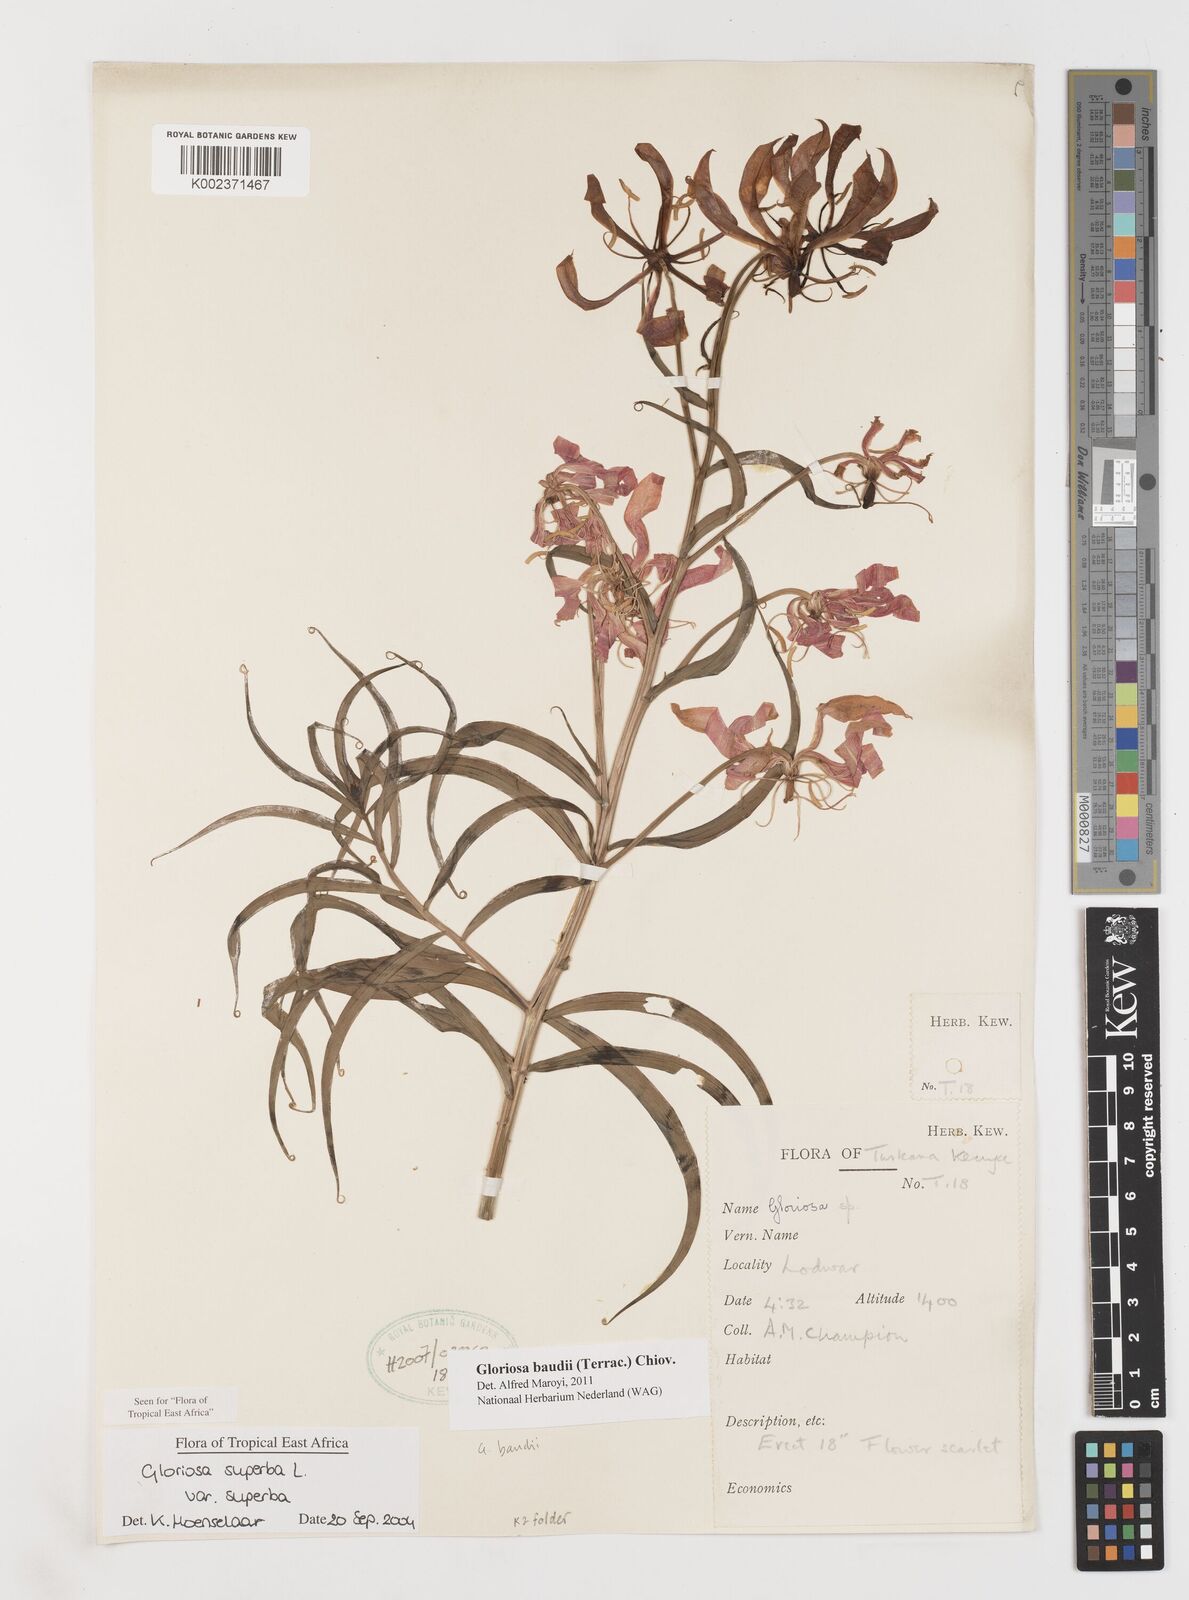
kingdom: Plantae
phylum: Tracheophyta
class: Liliopsida
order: Liliales
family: Colchicaceae
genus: Gloriosa
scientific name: Gloriosa baudii
